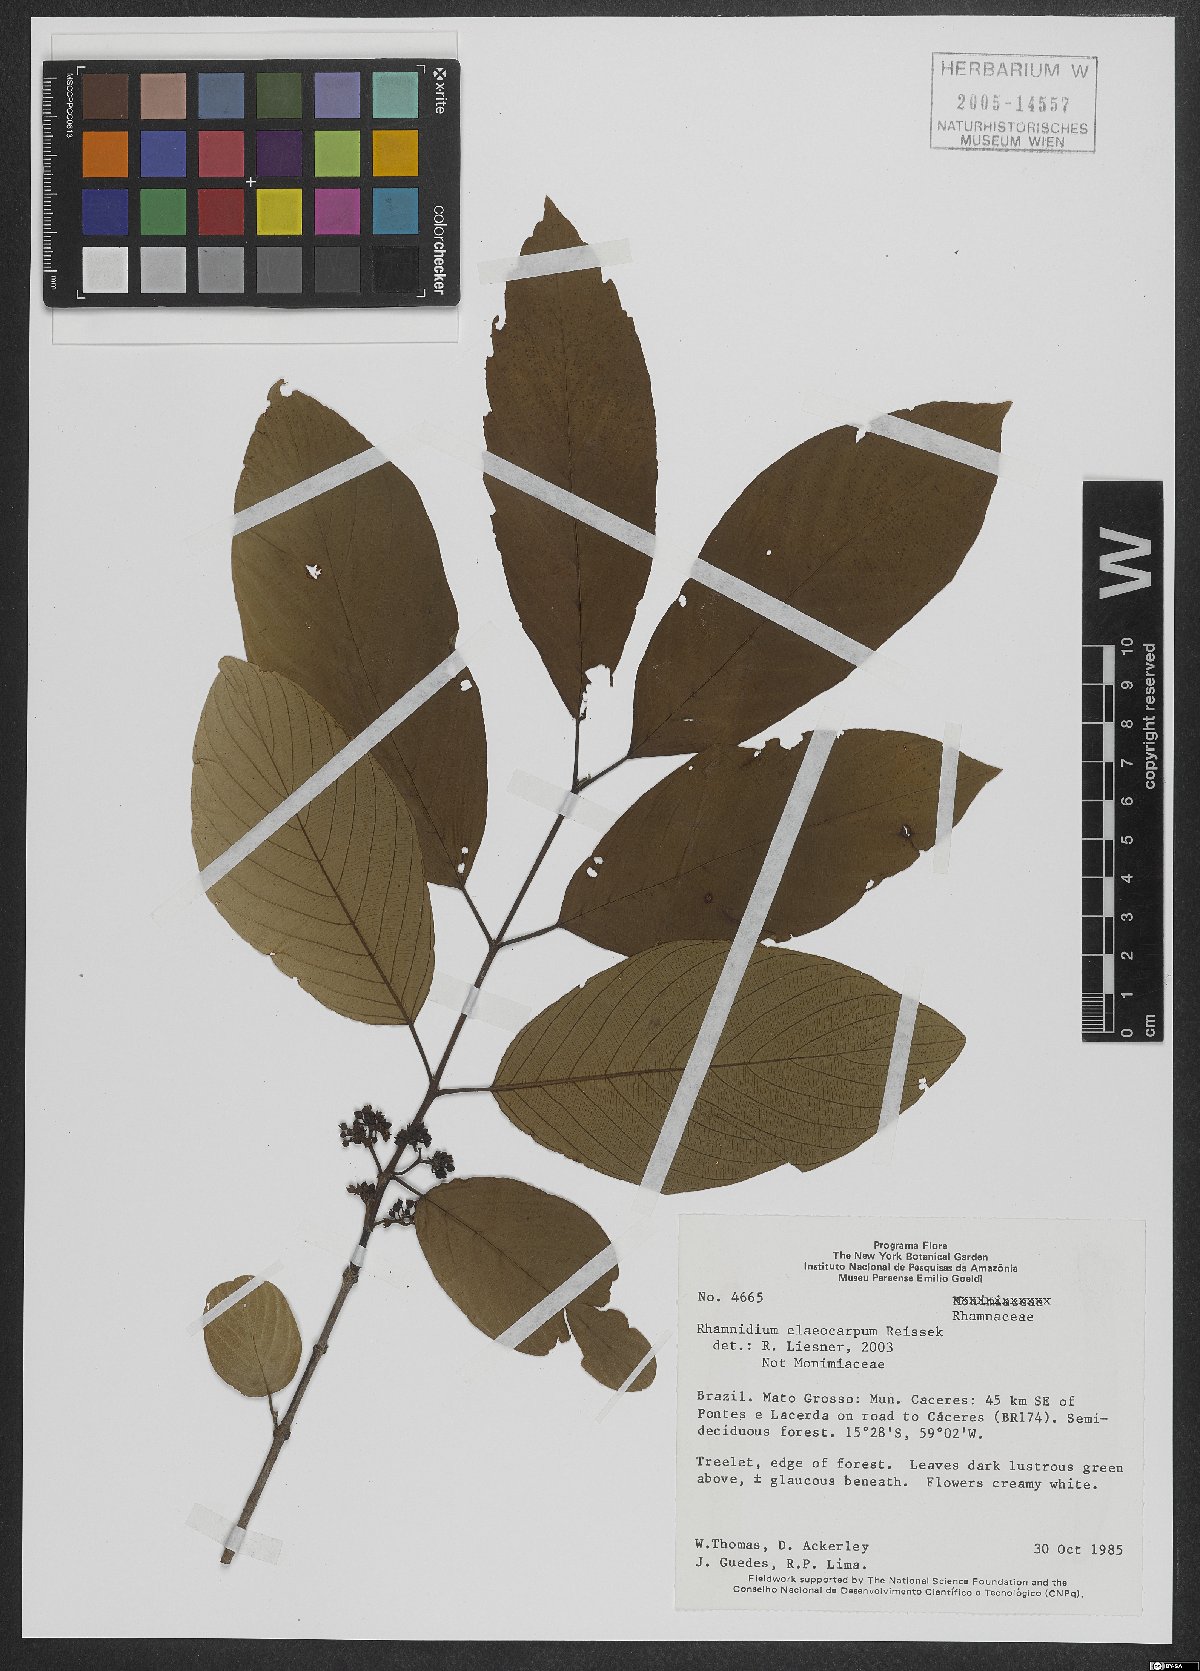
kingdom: Plantae
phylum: Tracheophyta
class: Magnoliopsida
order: Rosales
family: Rhamnaceae
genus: Rhamnidium
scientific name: Rhamnidium elaeocarpum
